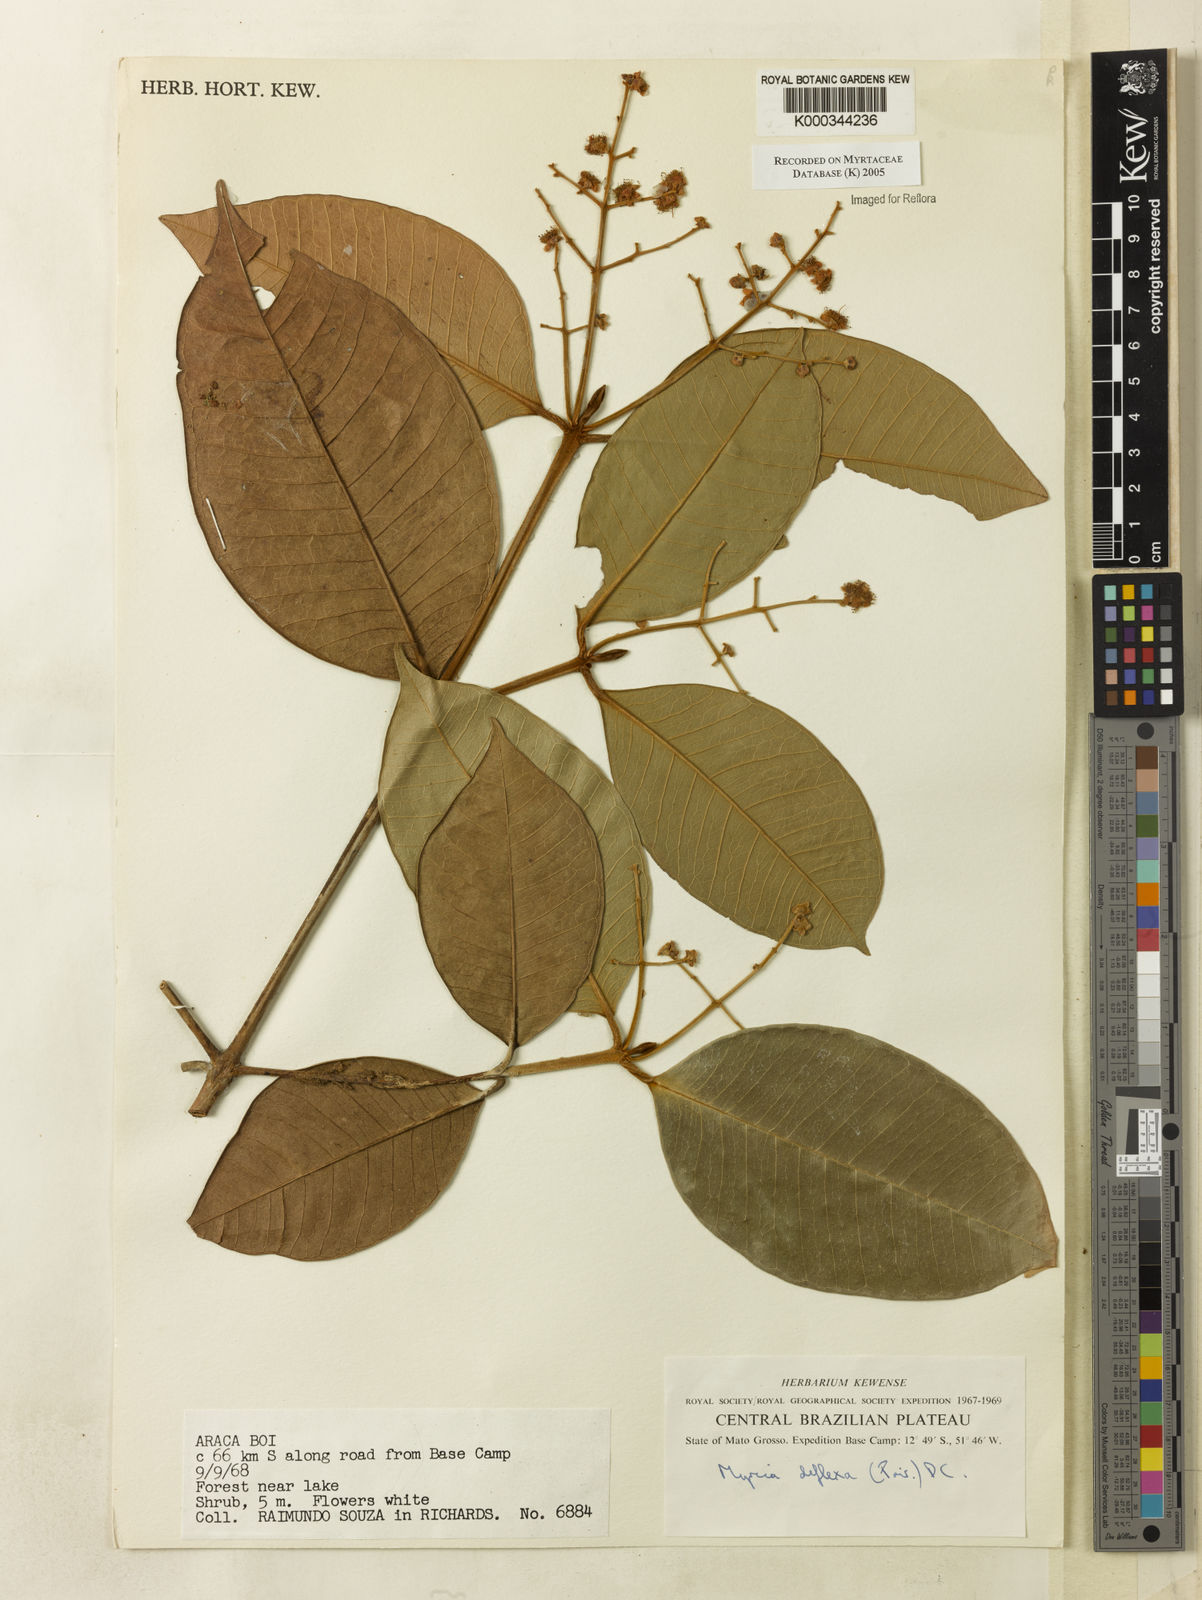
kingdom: Plantae
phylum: Tracheophyta
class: Magnoliopsida
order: Myrtales
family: Myrtaceae
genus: Myrcia
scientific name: Myrcia deflexa
